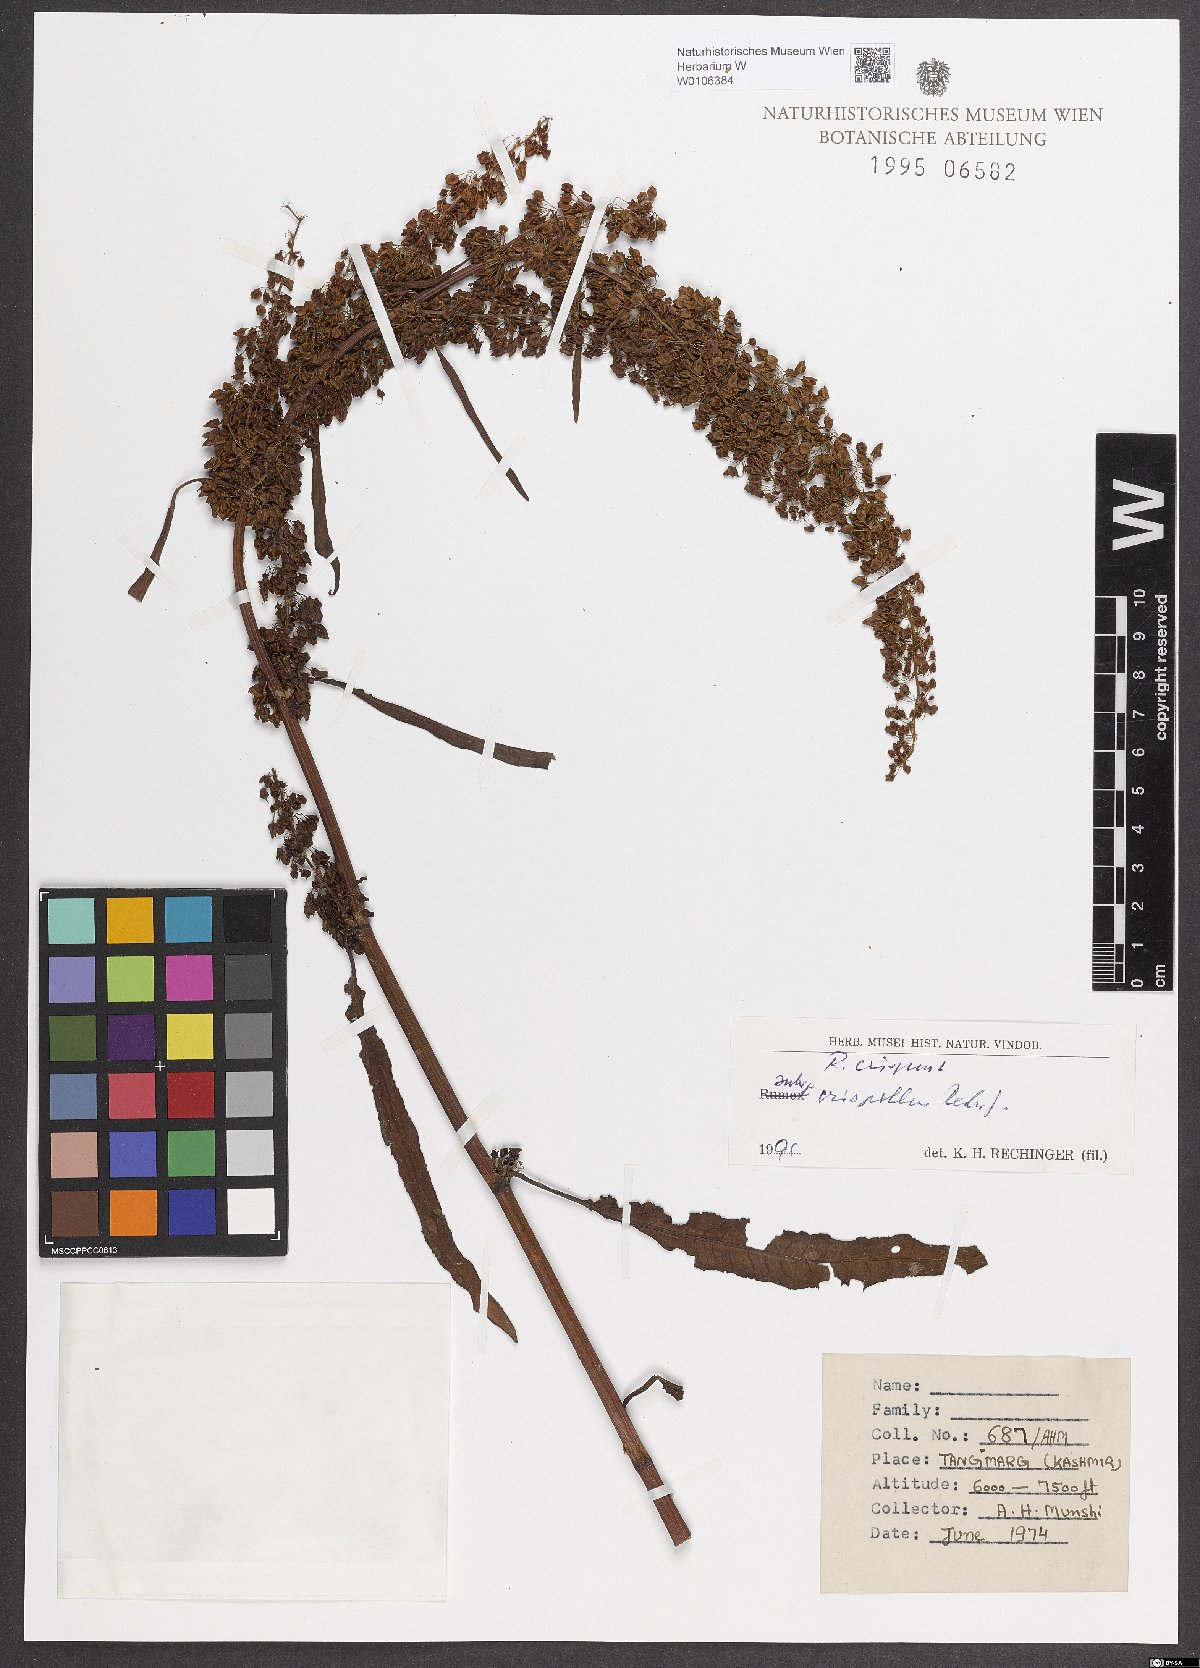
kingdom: Plantae
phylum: Tracheophyta
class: Magnoliopsida
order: Caryophyllales
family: Polygonaceae
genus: Rumex
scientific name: Rumex crispus
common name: Curled dock
